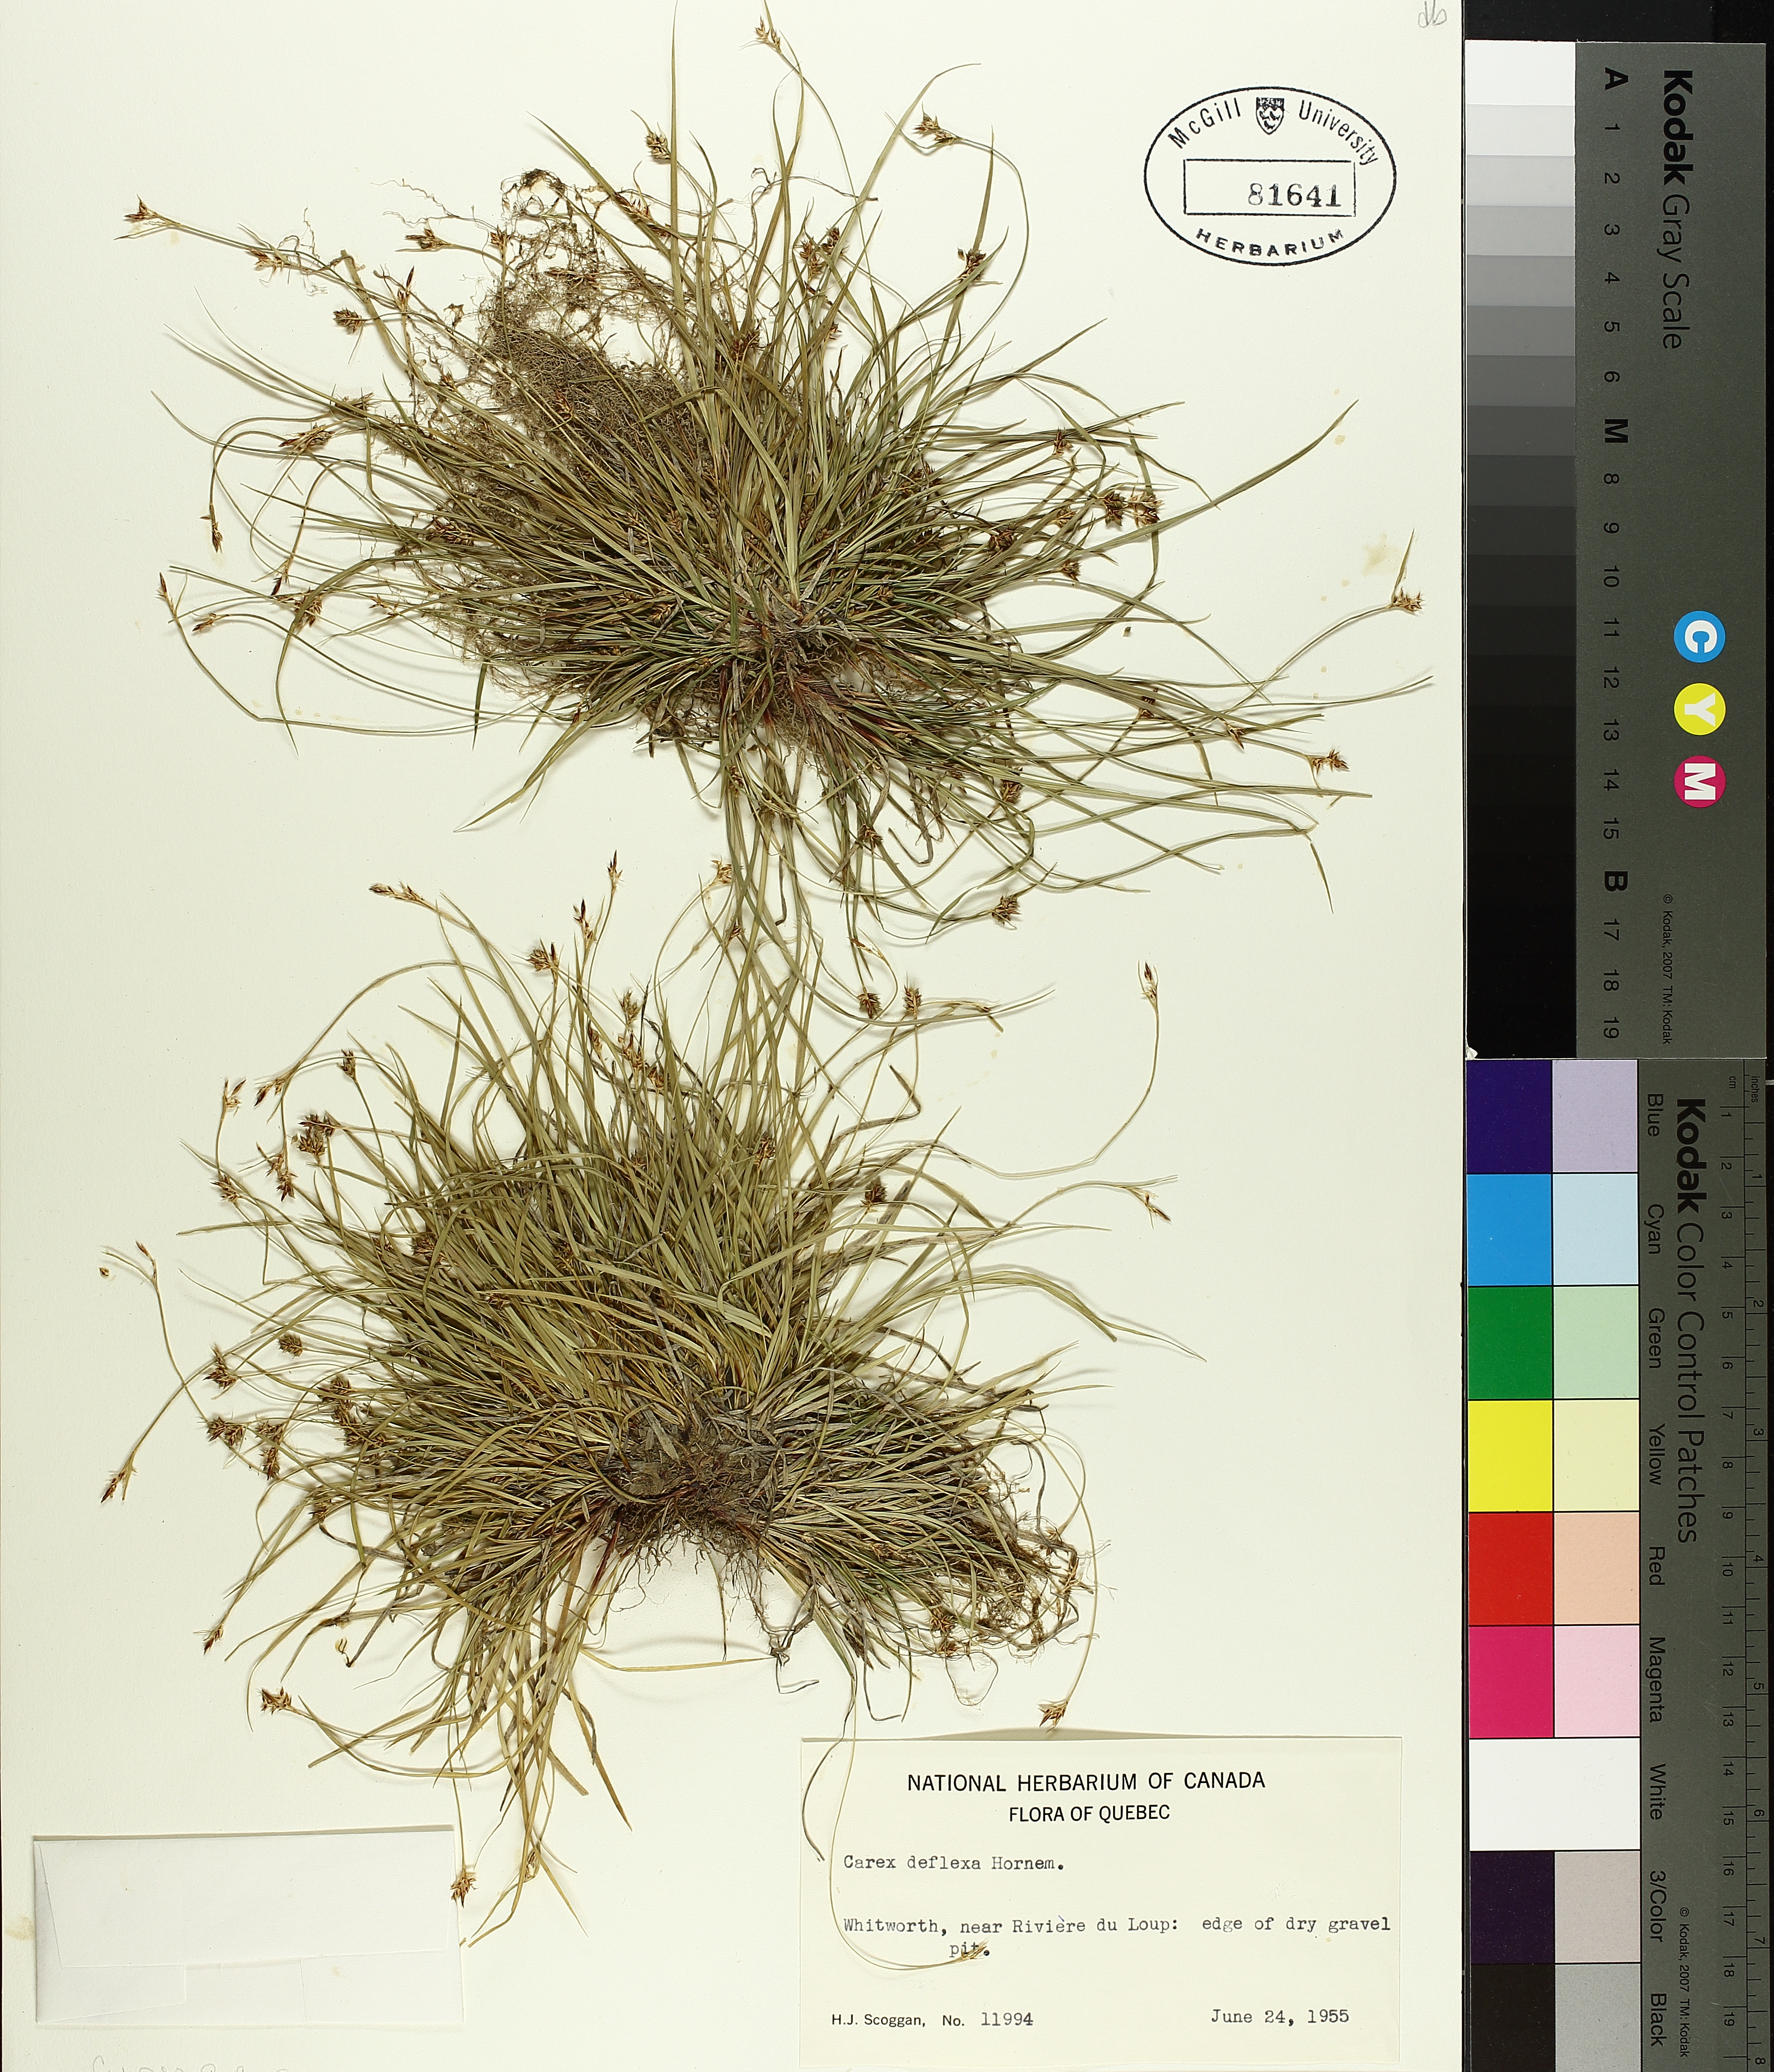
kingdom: Plantae
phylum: Tracheophyta
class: Liliopsida
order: Poales
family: Cyperaceae
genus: Carex
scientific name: Carex deflexa
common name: Bent northern sedge
